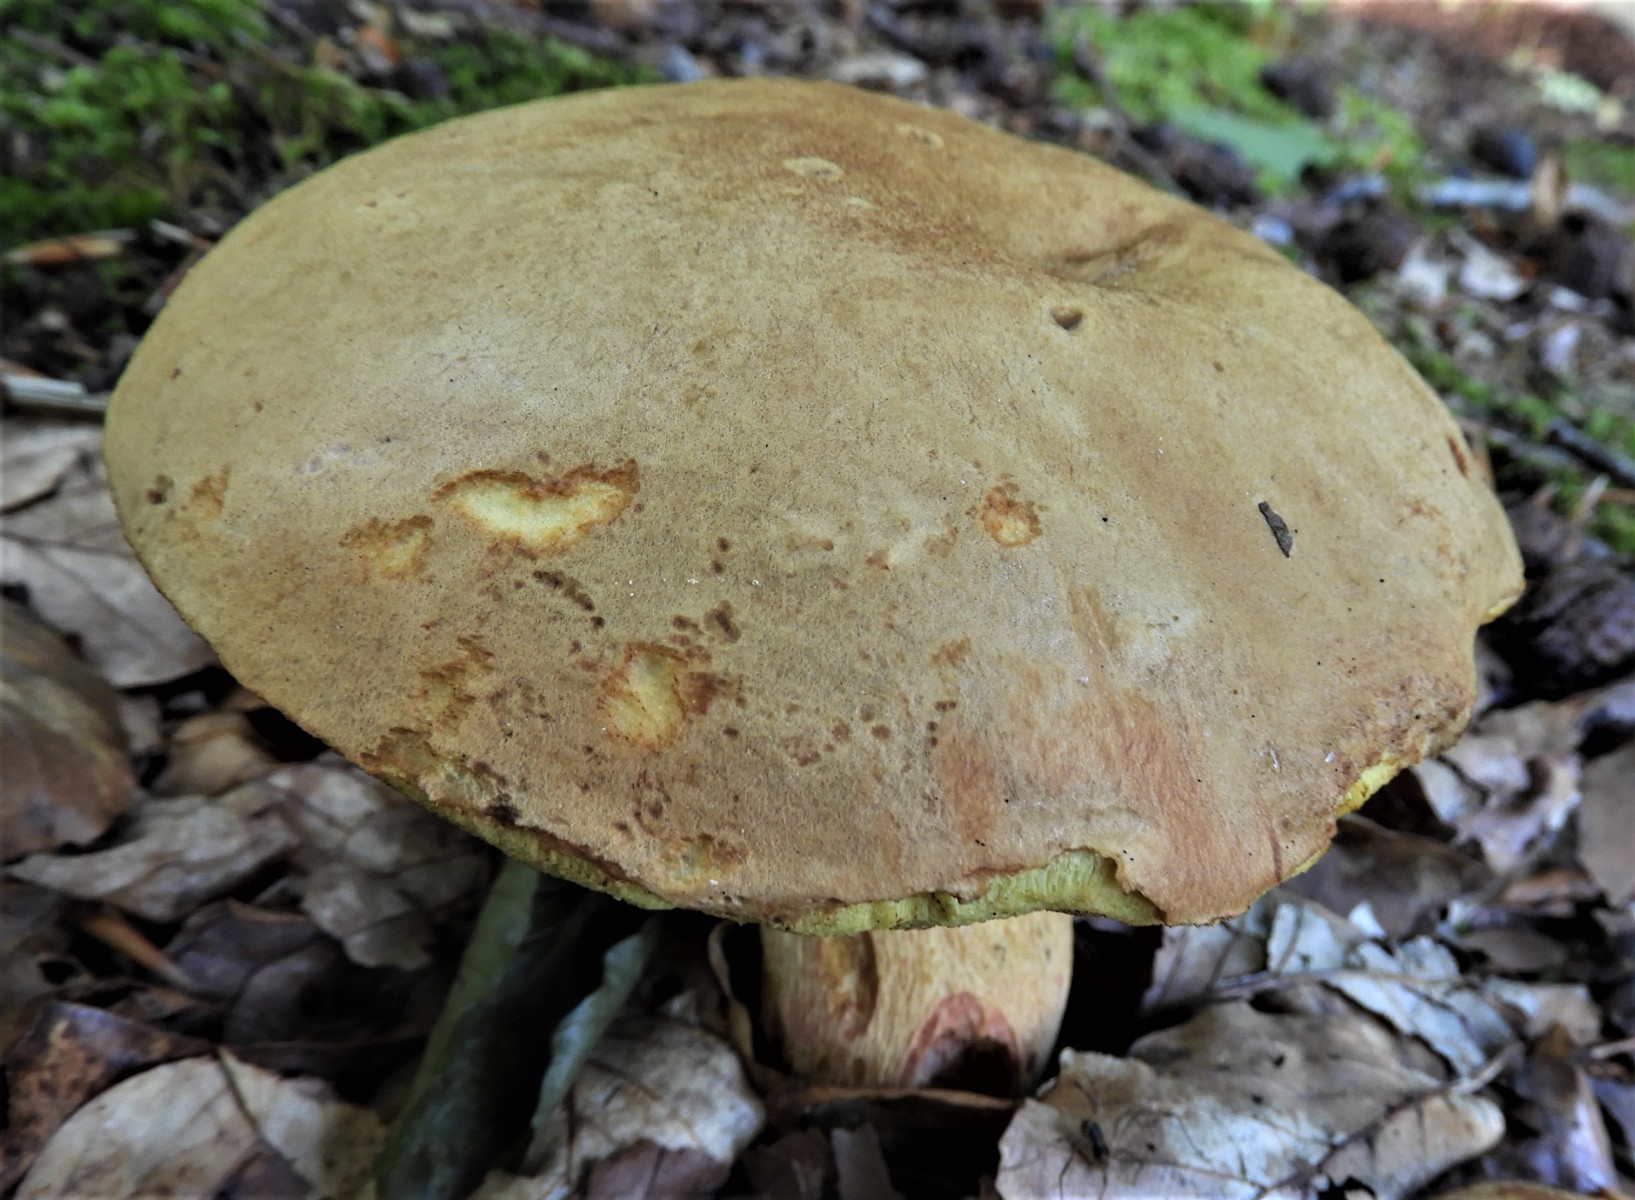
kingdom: Fungi
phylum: Basidiomycota
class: Agaricomycetes
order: Boletales
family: Boletaceae
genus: Xerocomus
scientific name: Xerocomus subtomentosus
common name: filtet rørhat
